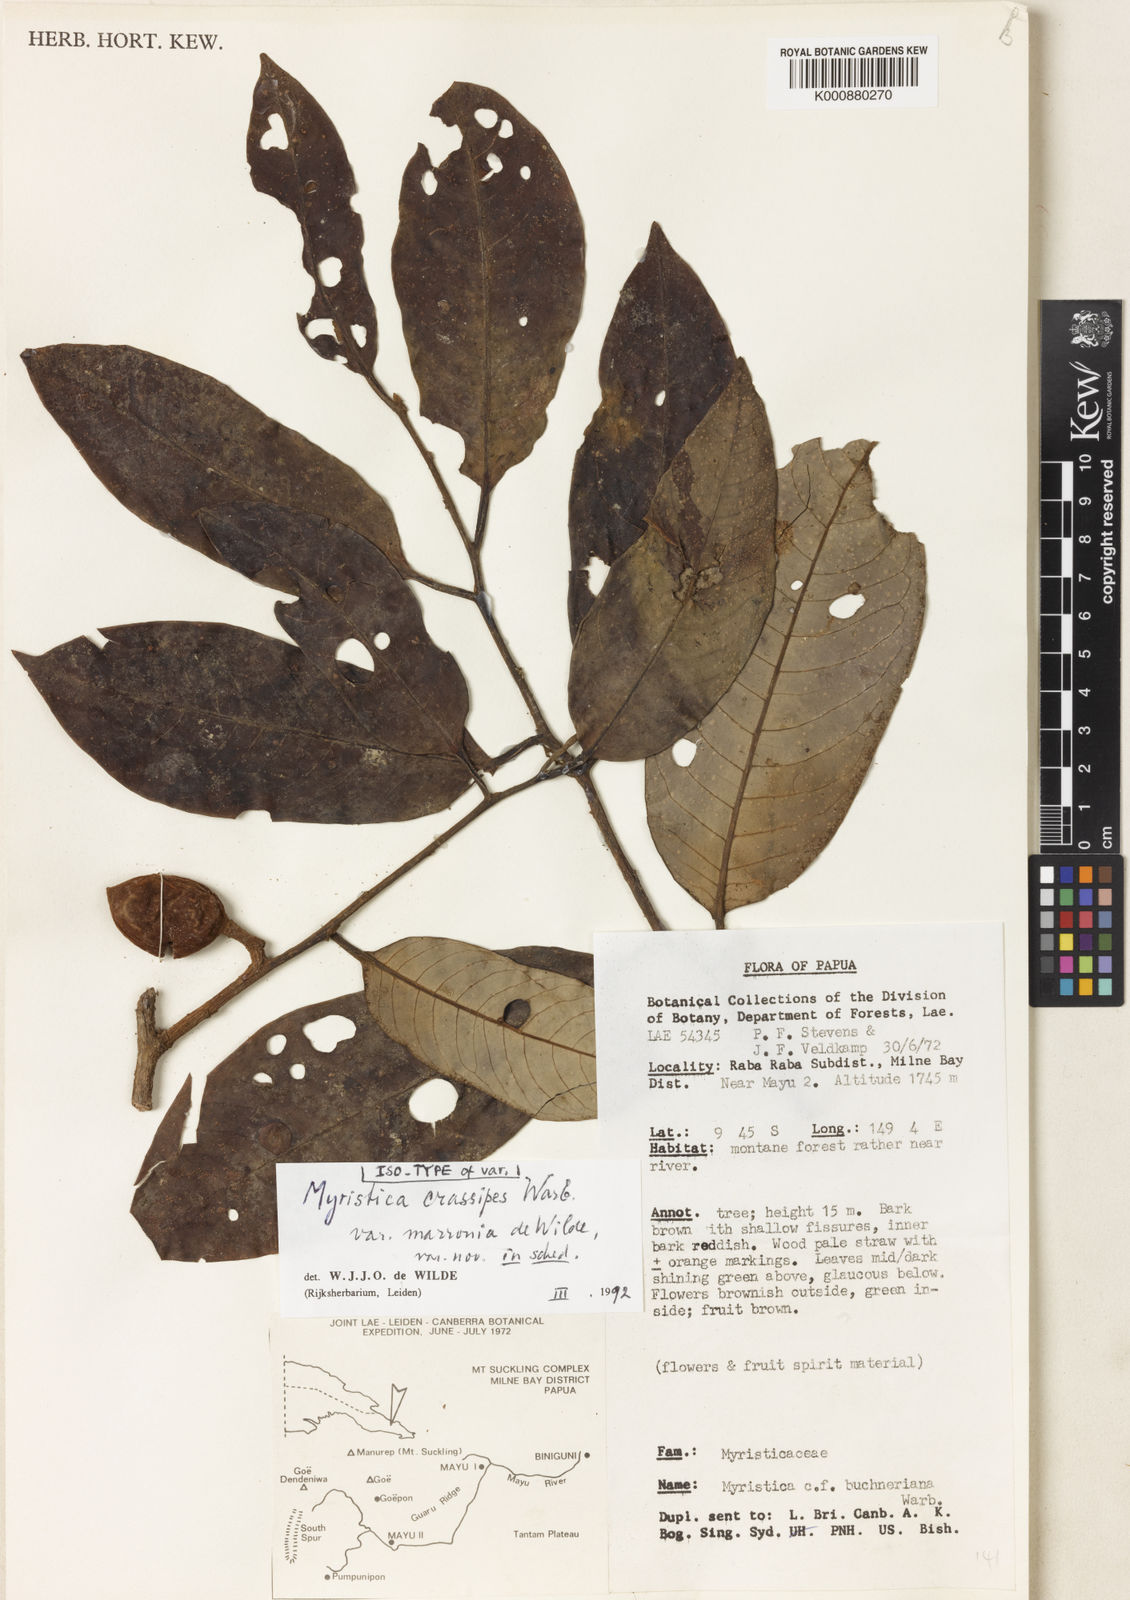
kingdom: Plantae
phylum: Tracheophyta
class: Magnoliopsida
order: Magnoliales
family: Myristicaceae
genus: Myristica
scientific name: Myristica crassipes
